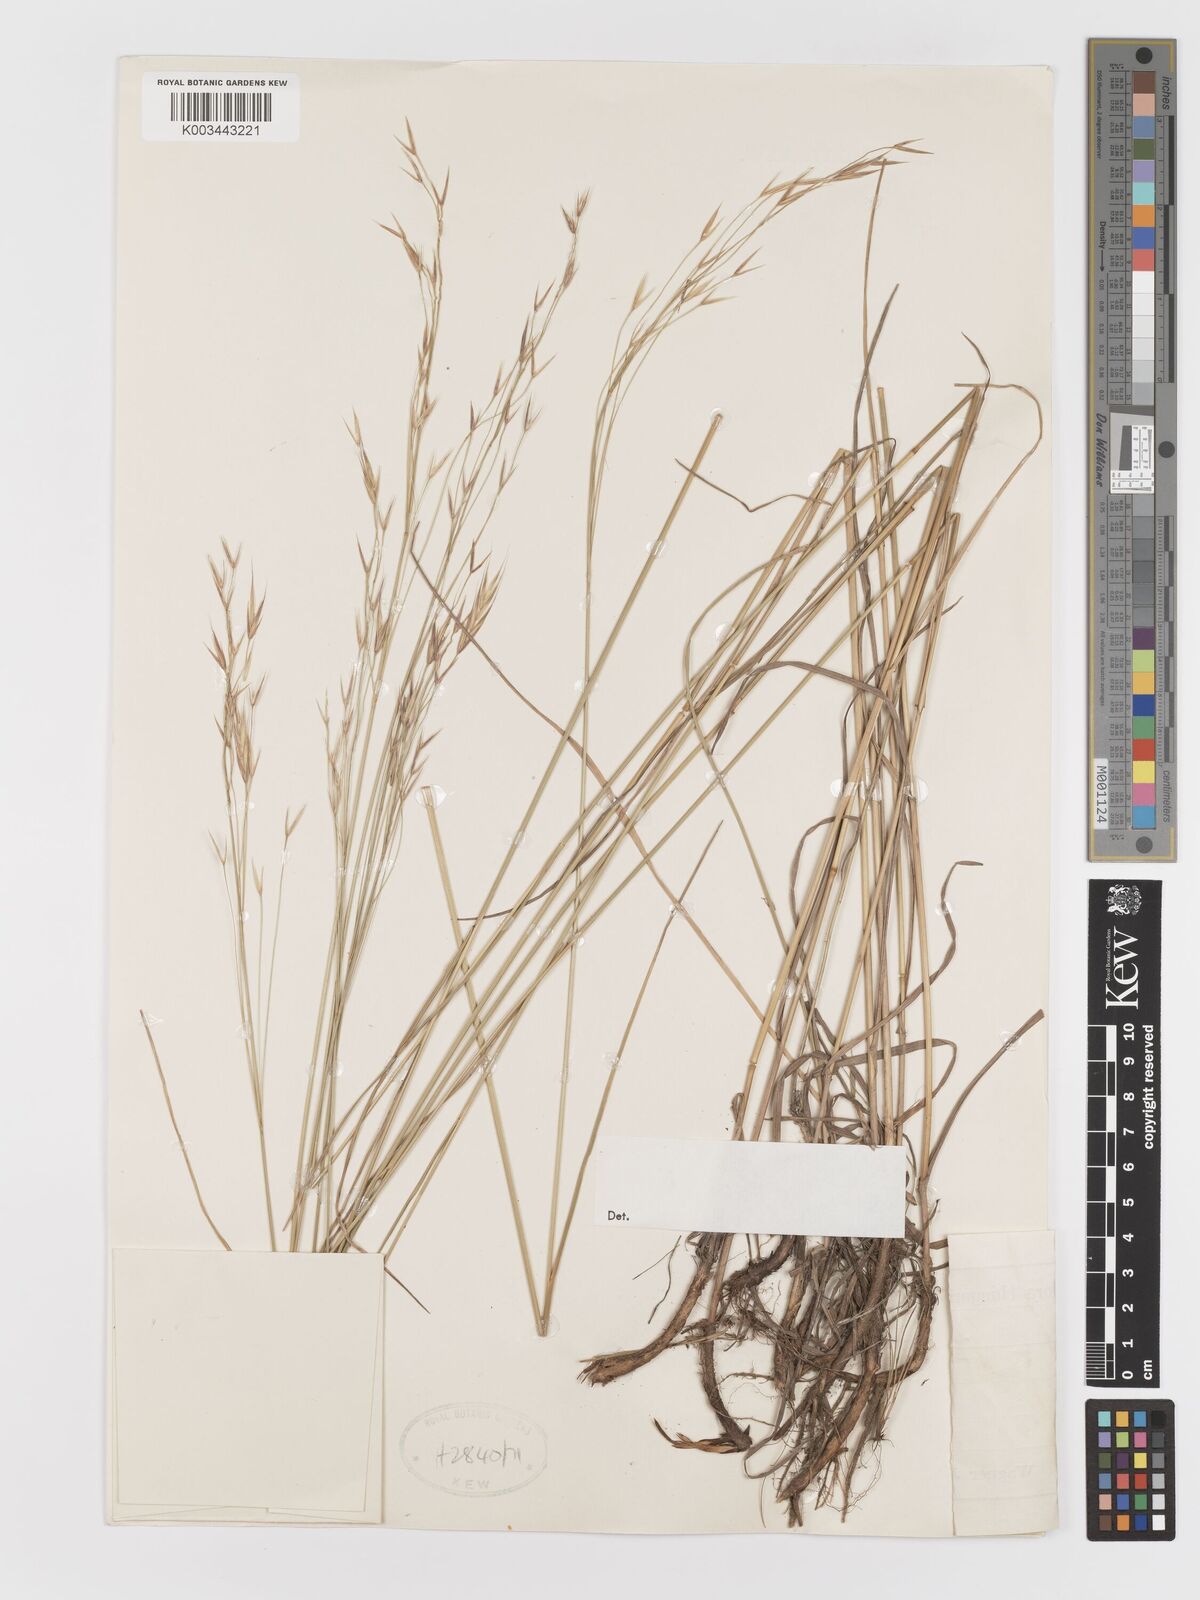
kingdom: Plantae
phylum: Tracheophyta
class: Liliopsida
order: Poales
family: Poaceae
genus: Bromus
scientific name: Bromus
